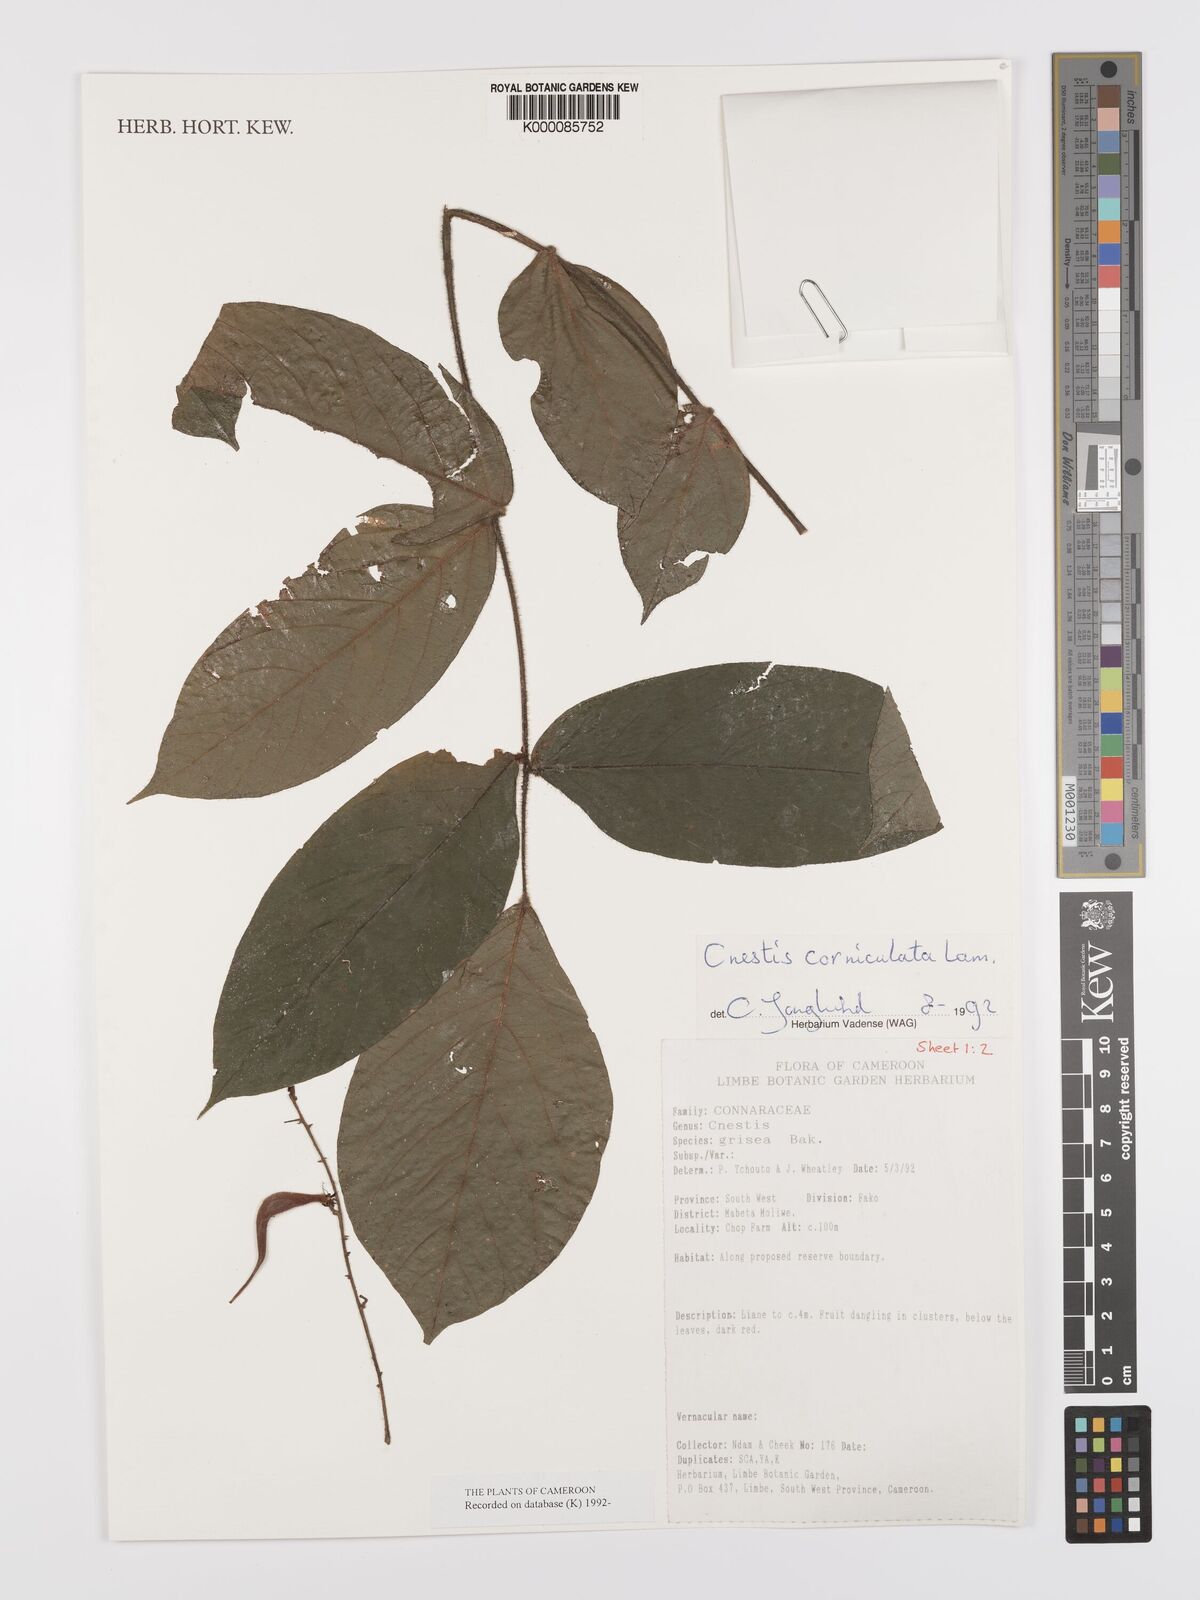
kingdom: Plantae
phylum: Tracheophyta
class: Magnoliopsida
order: Oxalidales
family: Connaraceae
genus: Cnestis
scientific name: Cnestis corniculata
